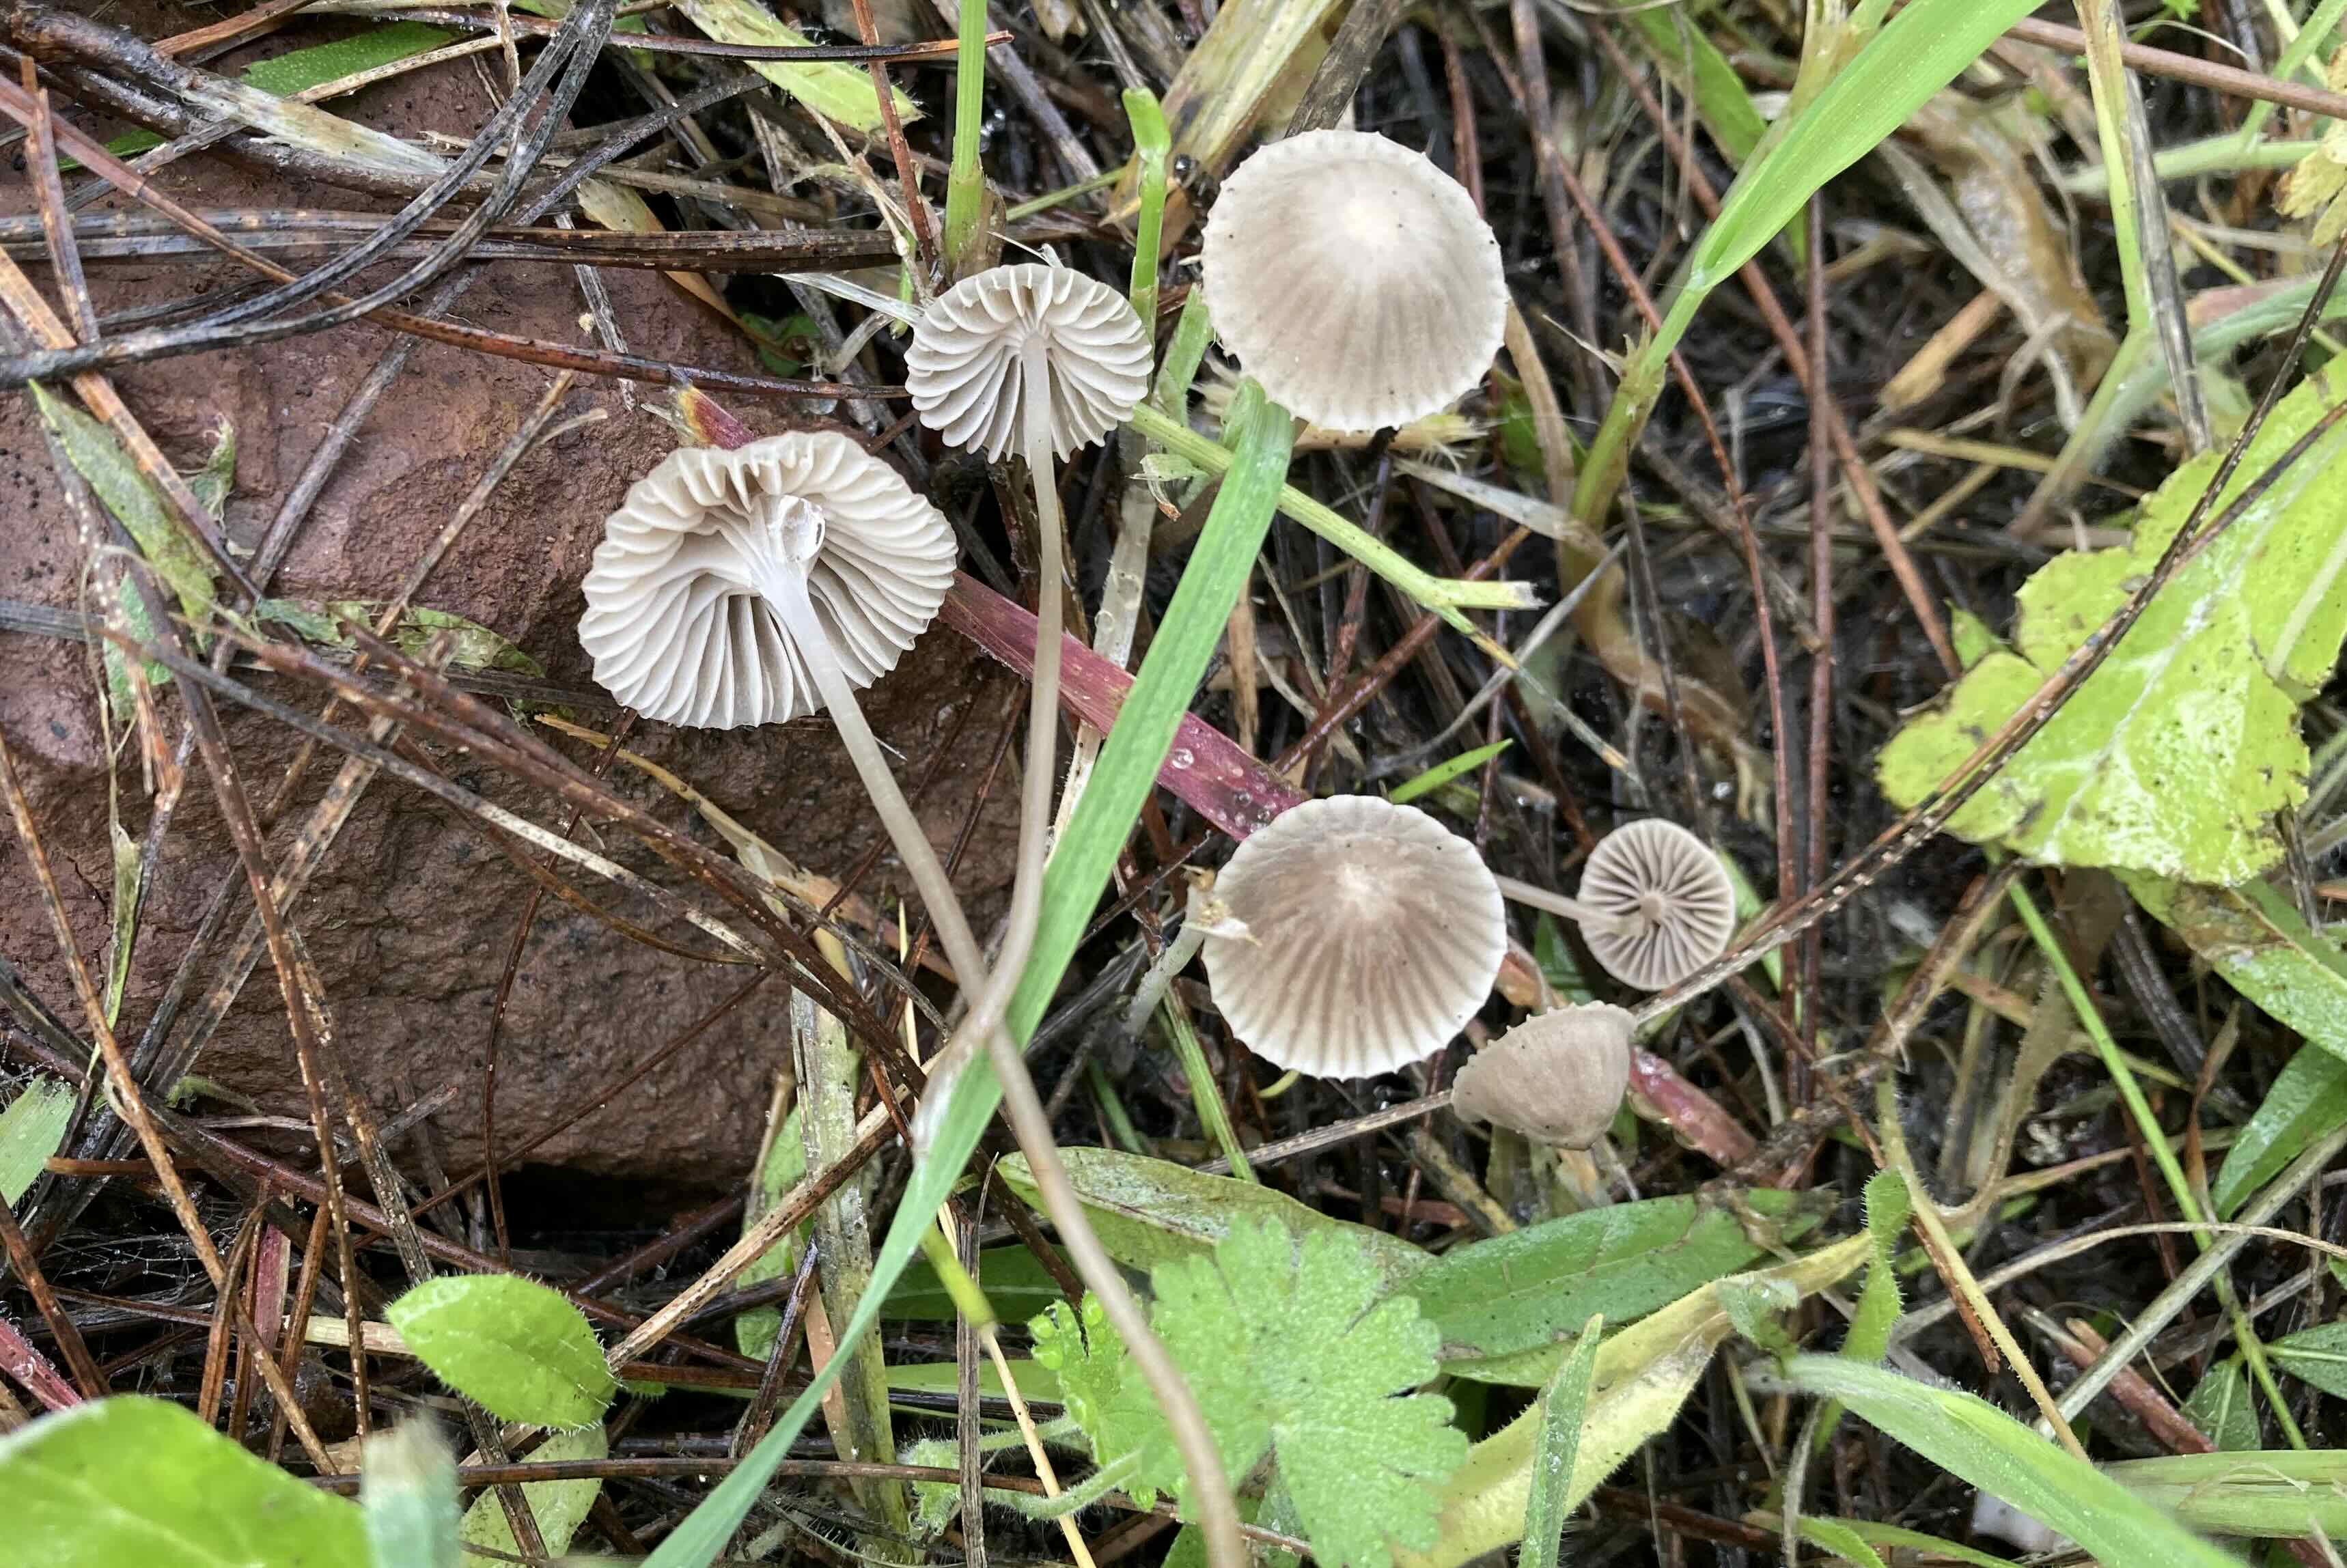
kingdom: Fungi
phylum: Basidiomycota
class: Agaricomycetes
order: Agaricales
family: Mycenaceae
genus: Mycena
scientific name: Mycena
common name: huesvamp
